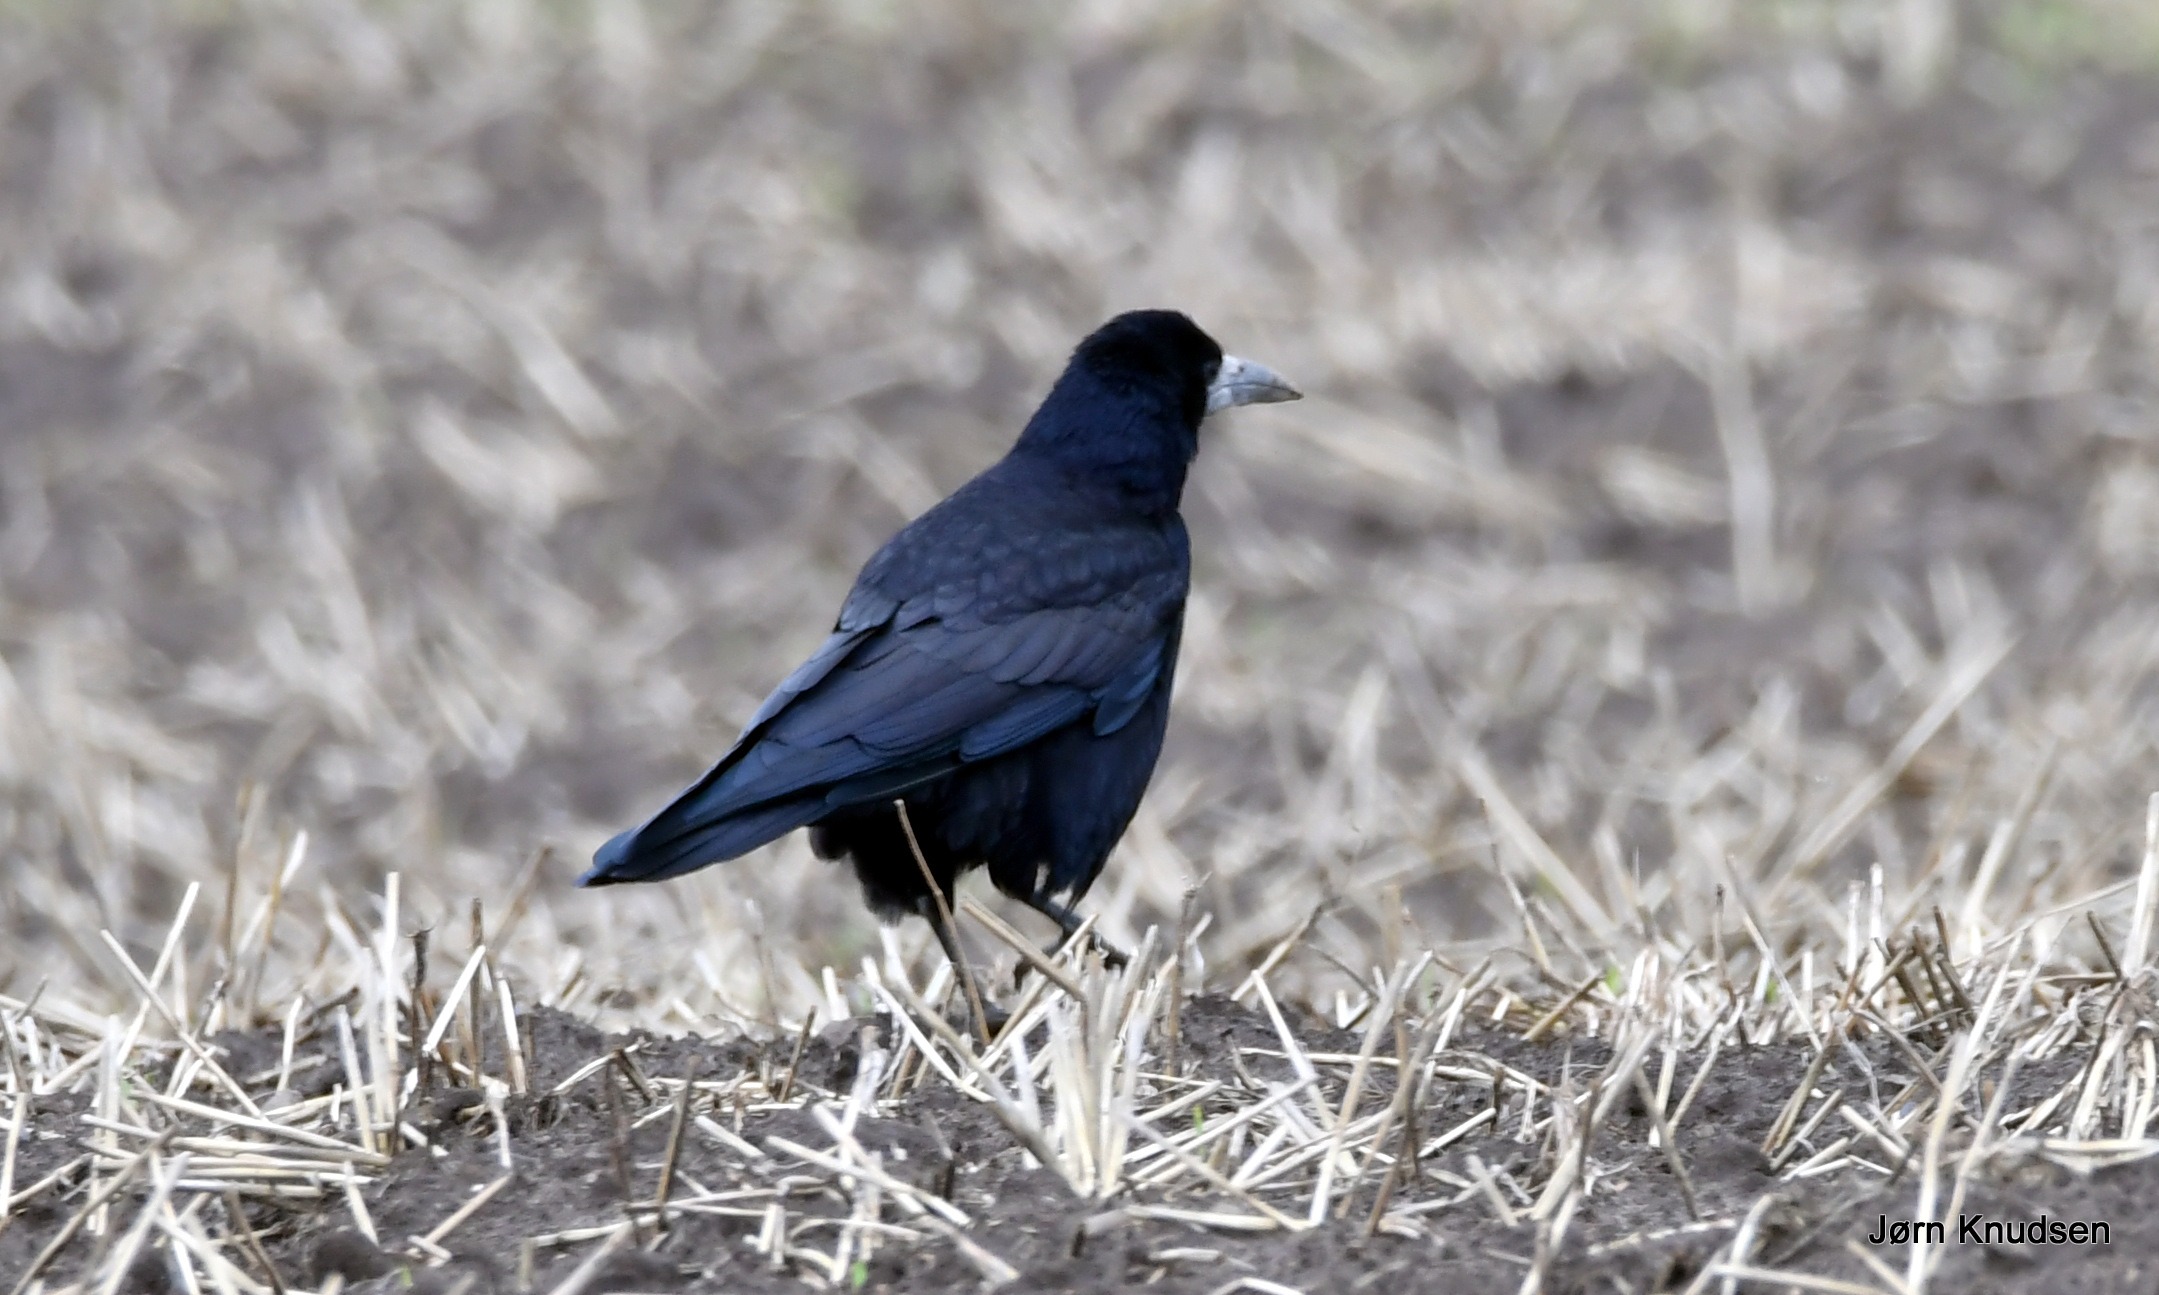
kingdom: Animalia
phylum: Chordata
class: Aves
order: Passeriformes
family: Corvidae
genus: Corvus
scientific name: Corvus frugilegus
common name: Råge
